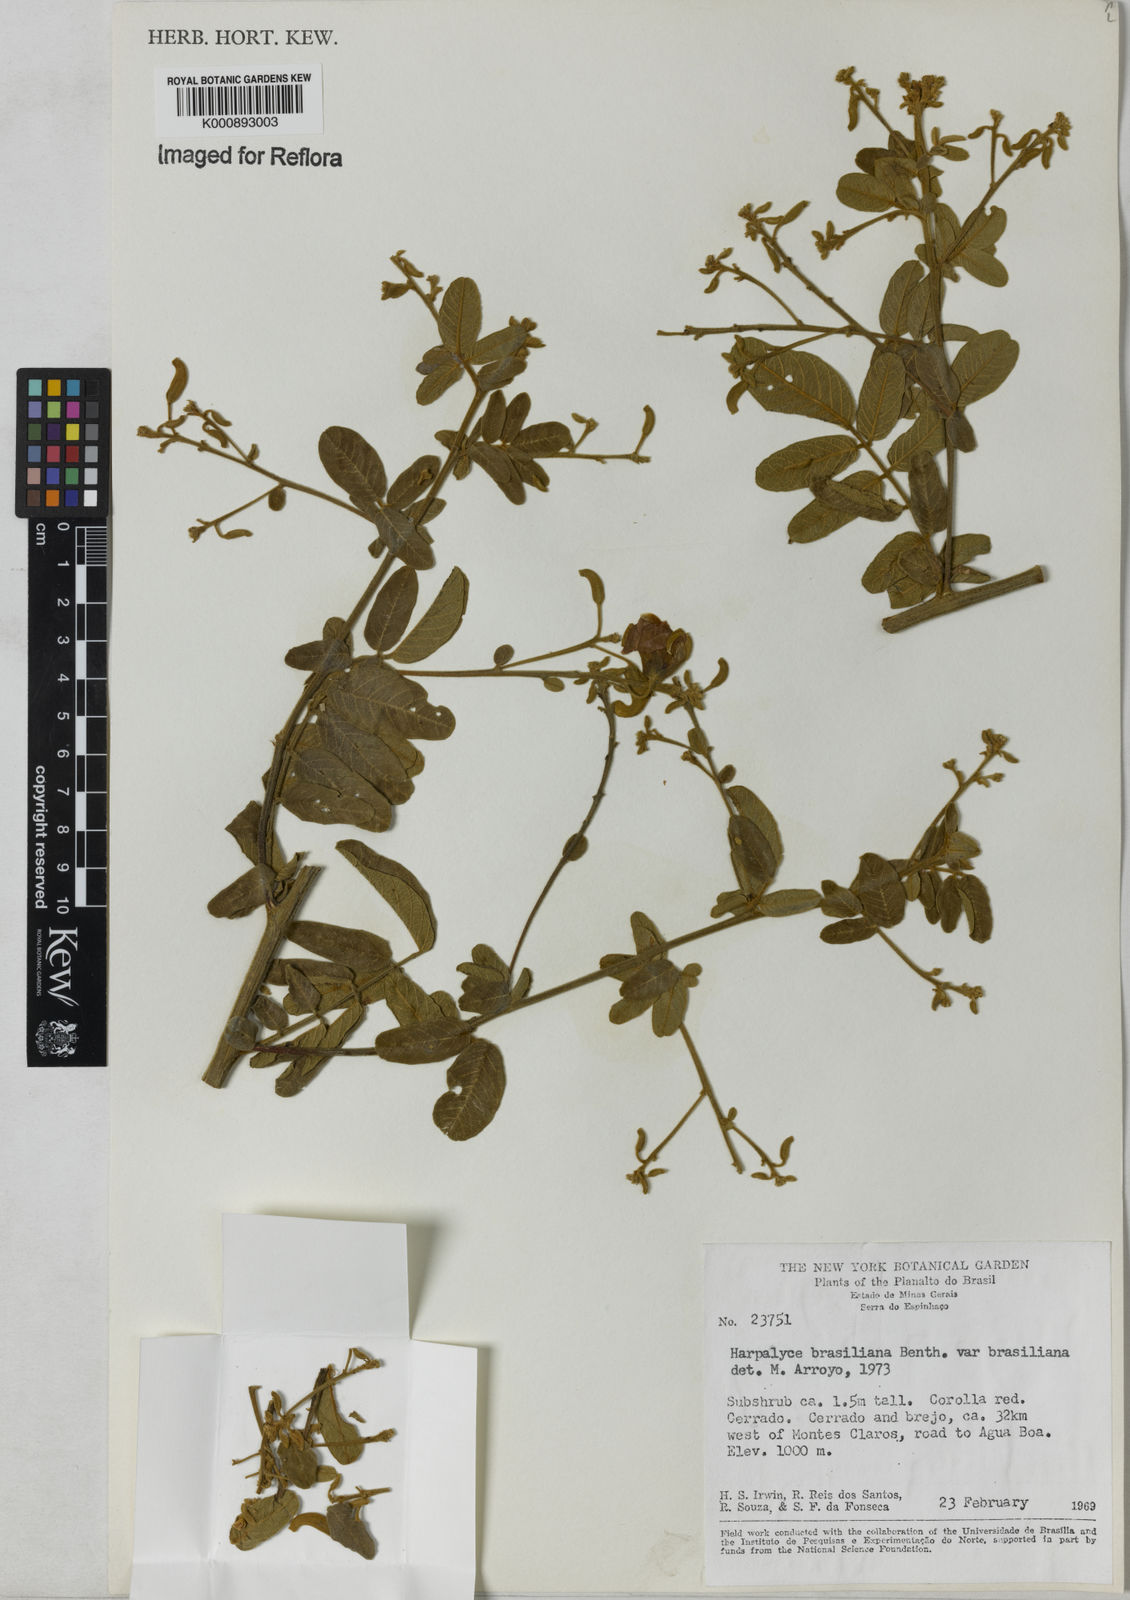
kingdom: Plantae
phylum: Tracheophyta
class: Magnoliopsida
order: Fabales
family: Fabaceae
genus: Harpalyce
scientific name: Harpalyce brasiliana
